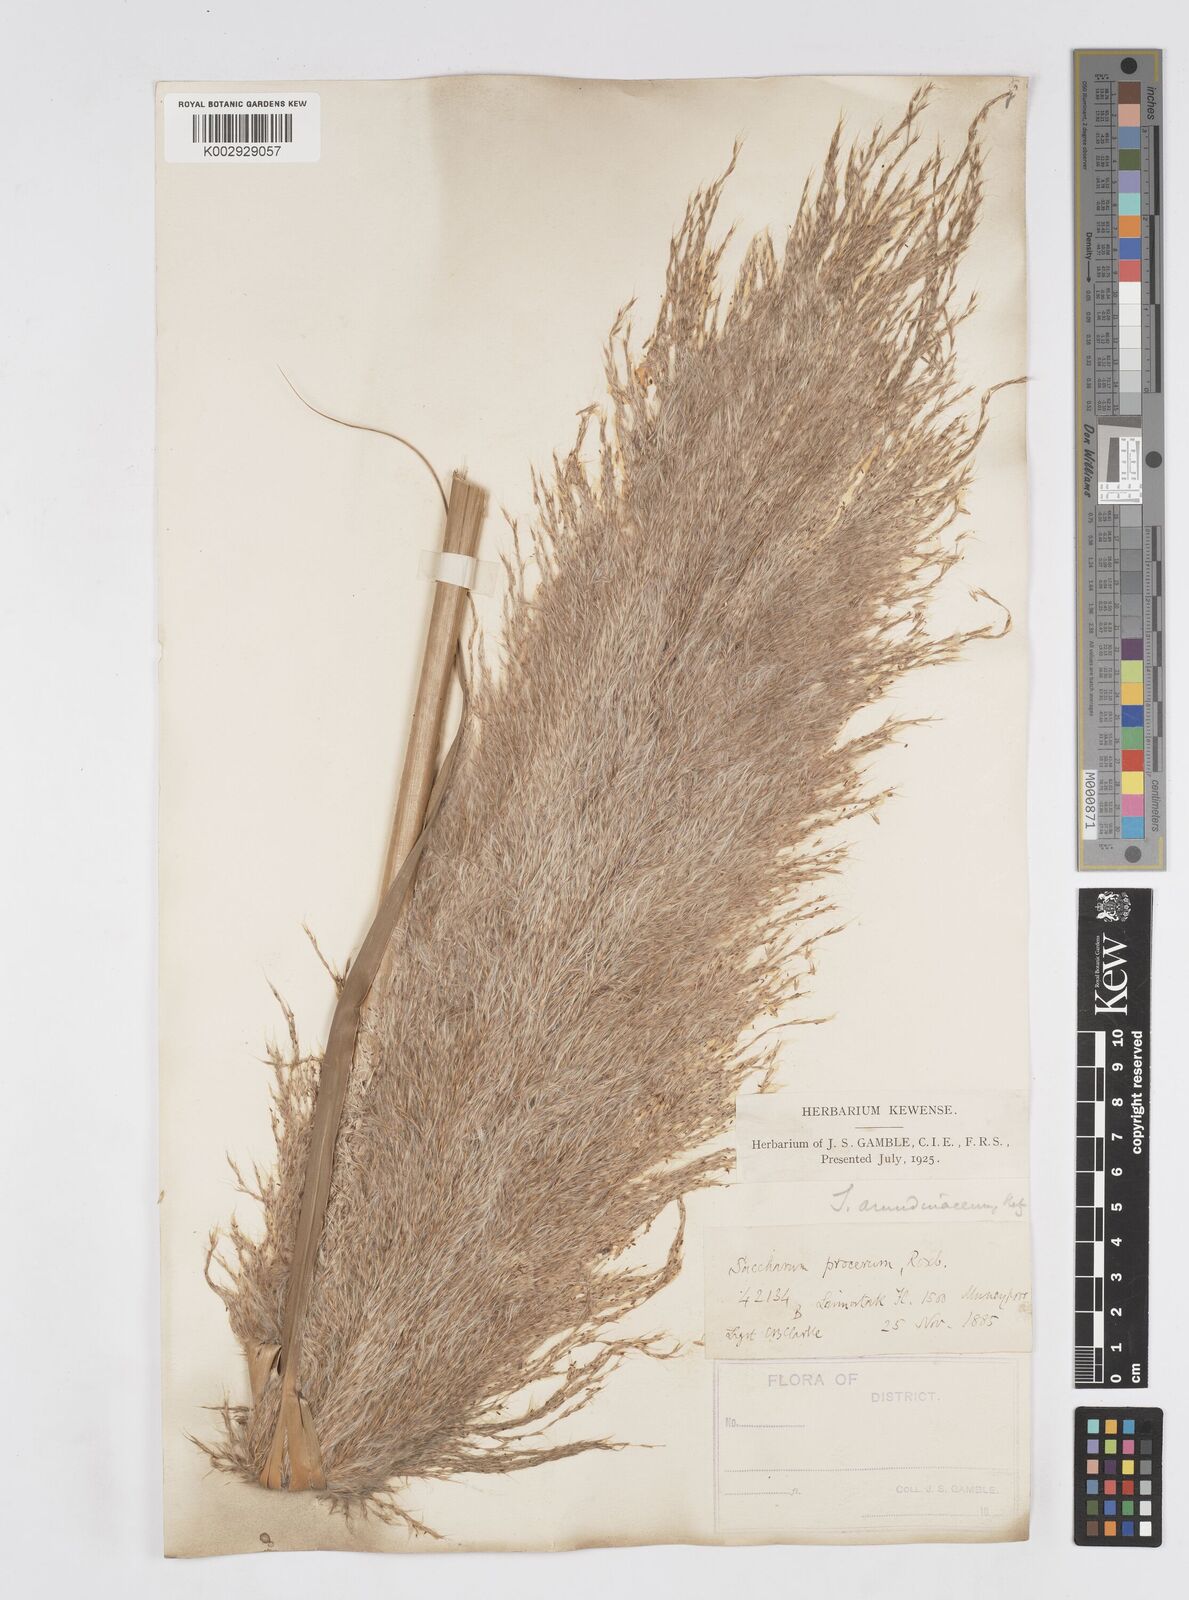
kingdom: Plantae
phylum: Tracheophyta
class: Liliopsida
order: Poales
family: Poaceae
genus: Tripidium
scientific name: Tripidium procerum
